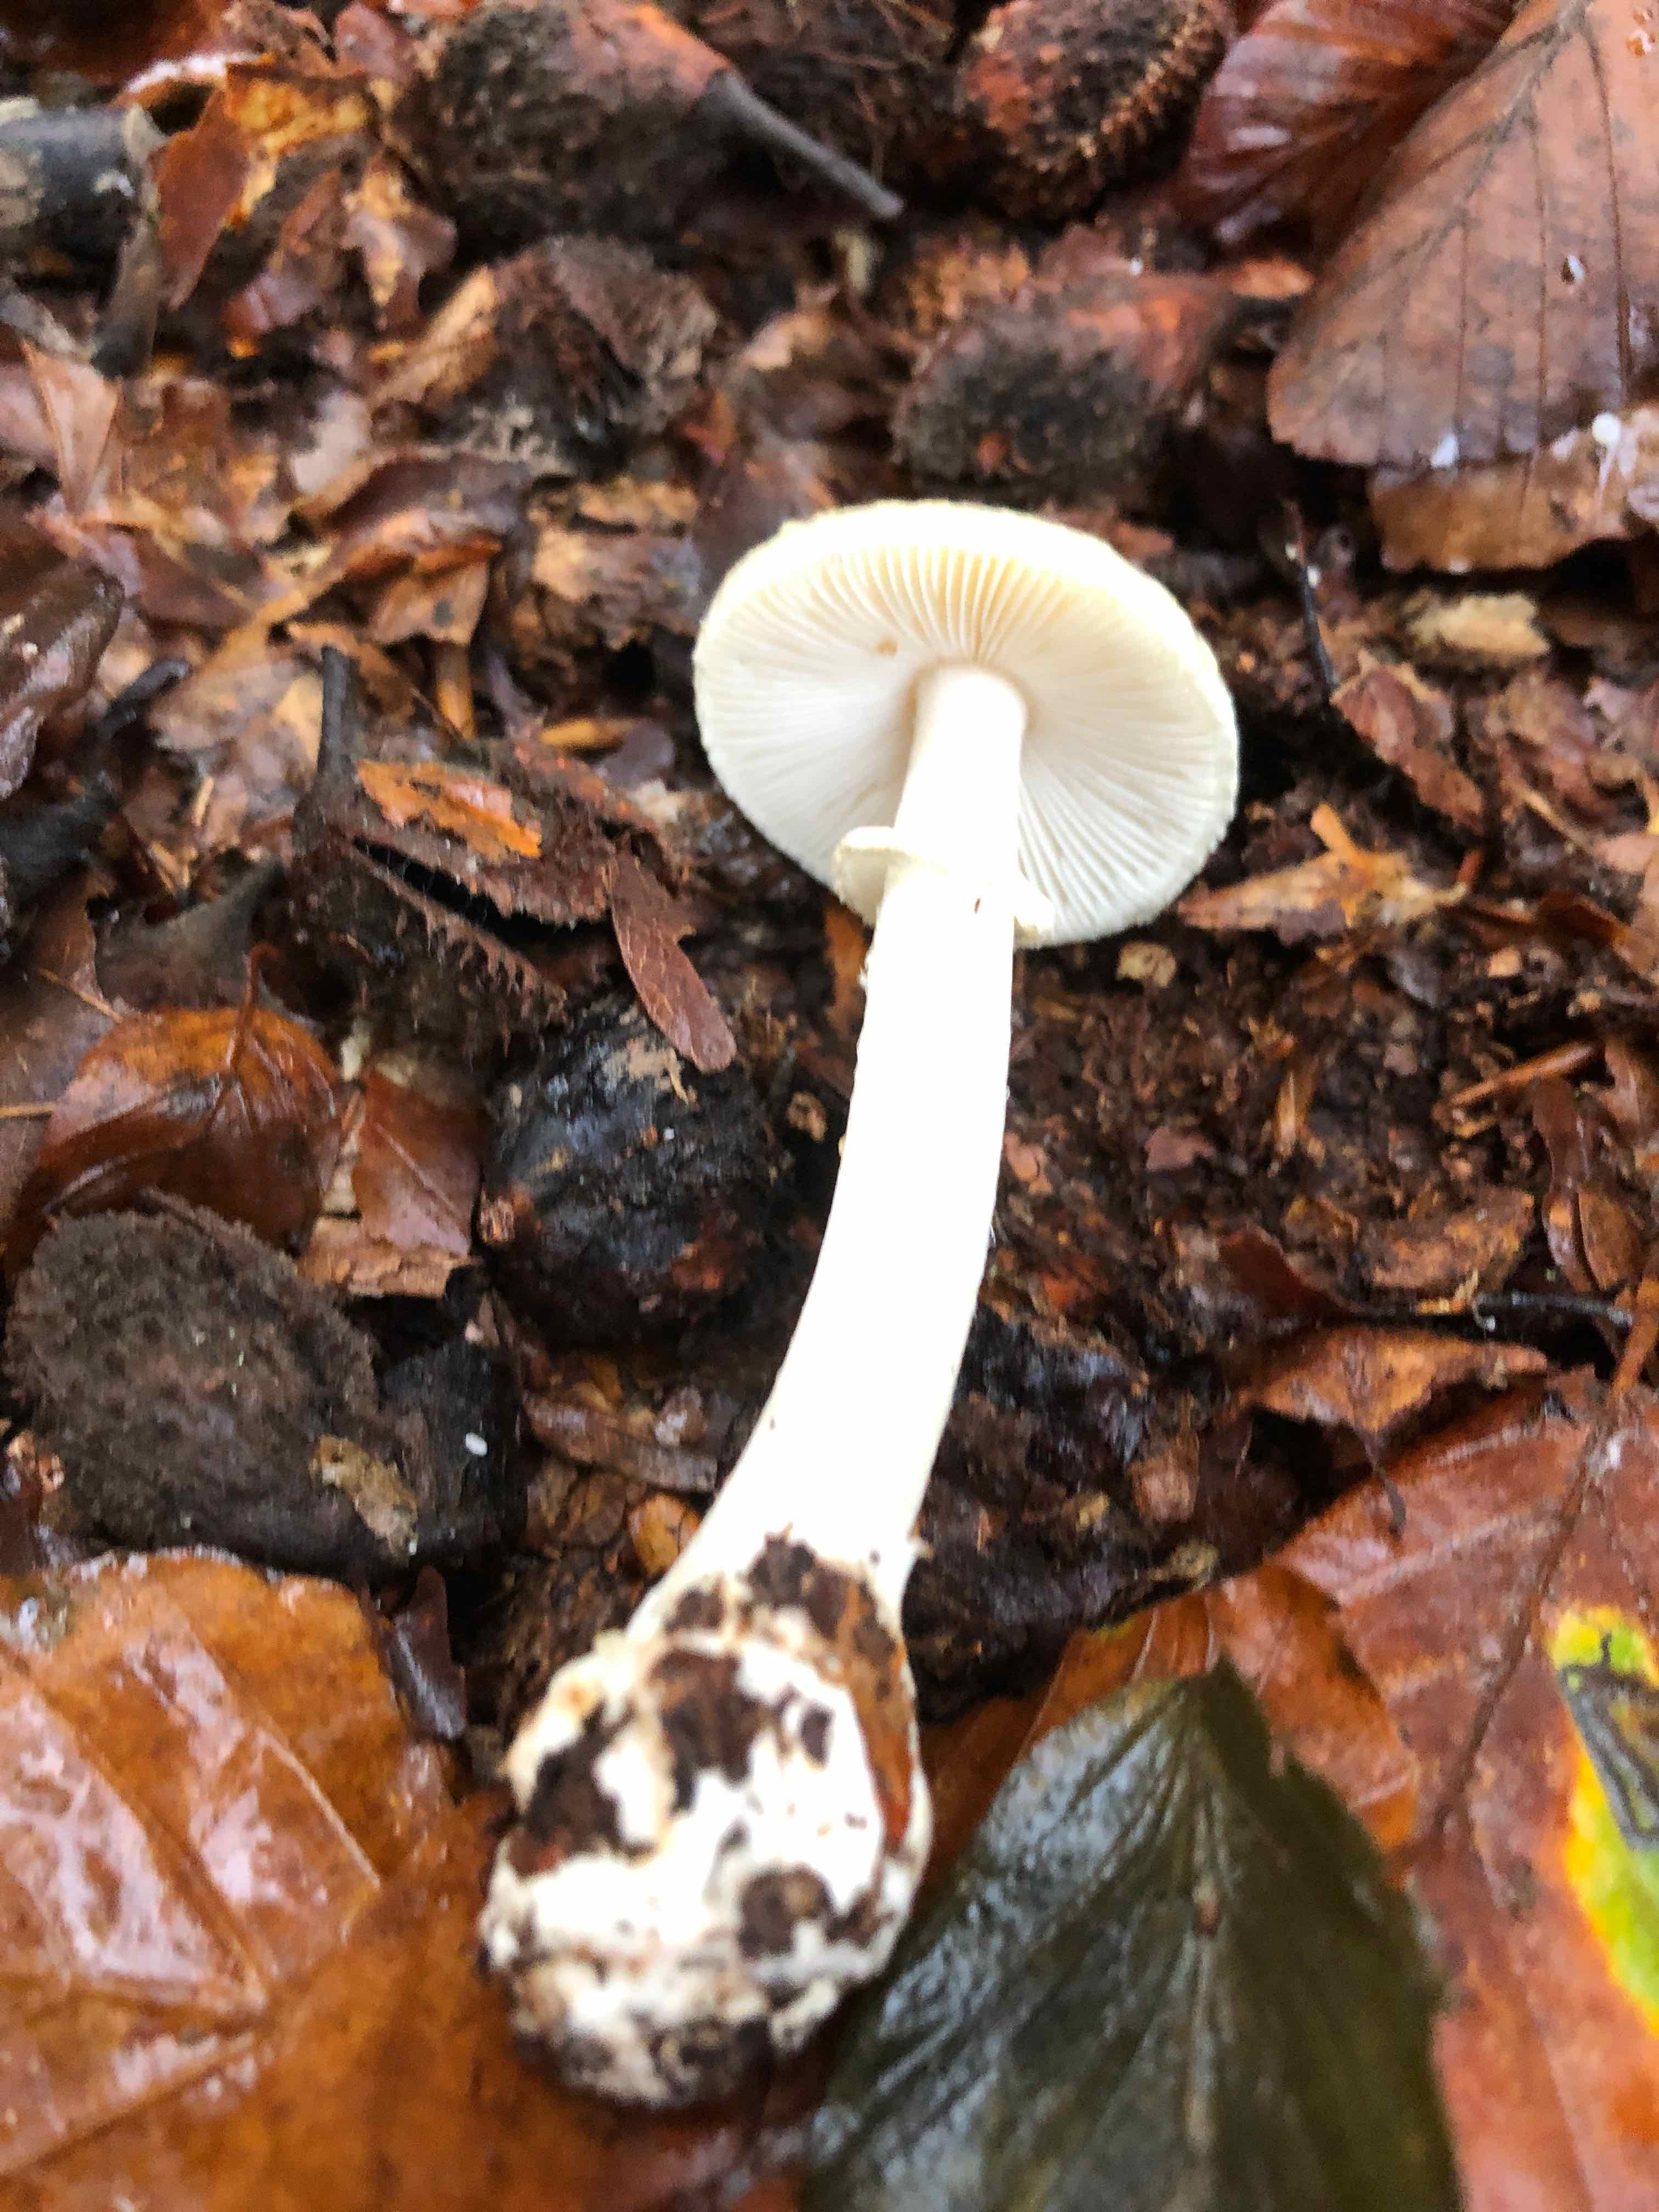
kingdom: Fungi
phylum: Basidiomycota
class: Agaricomycetes
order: Agaricales
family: Amanitaceae
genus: Amanita
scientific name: Amanita citrina
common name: kugleknoldet fluesvamp
